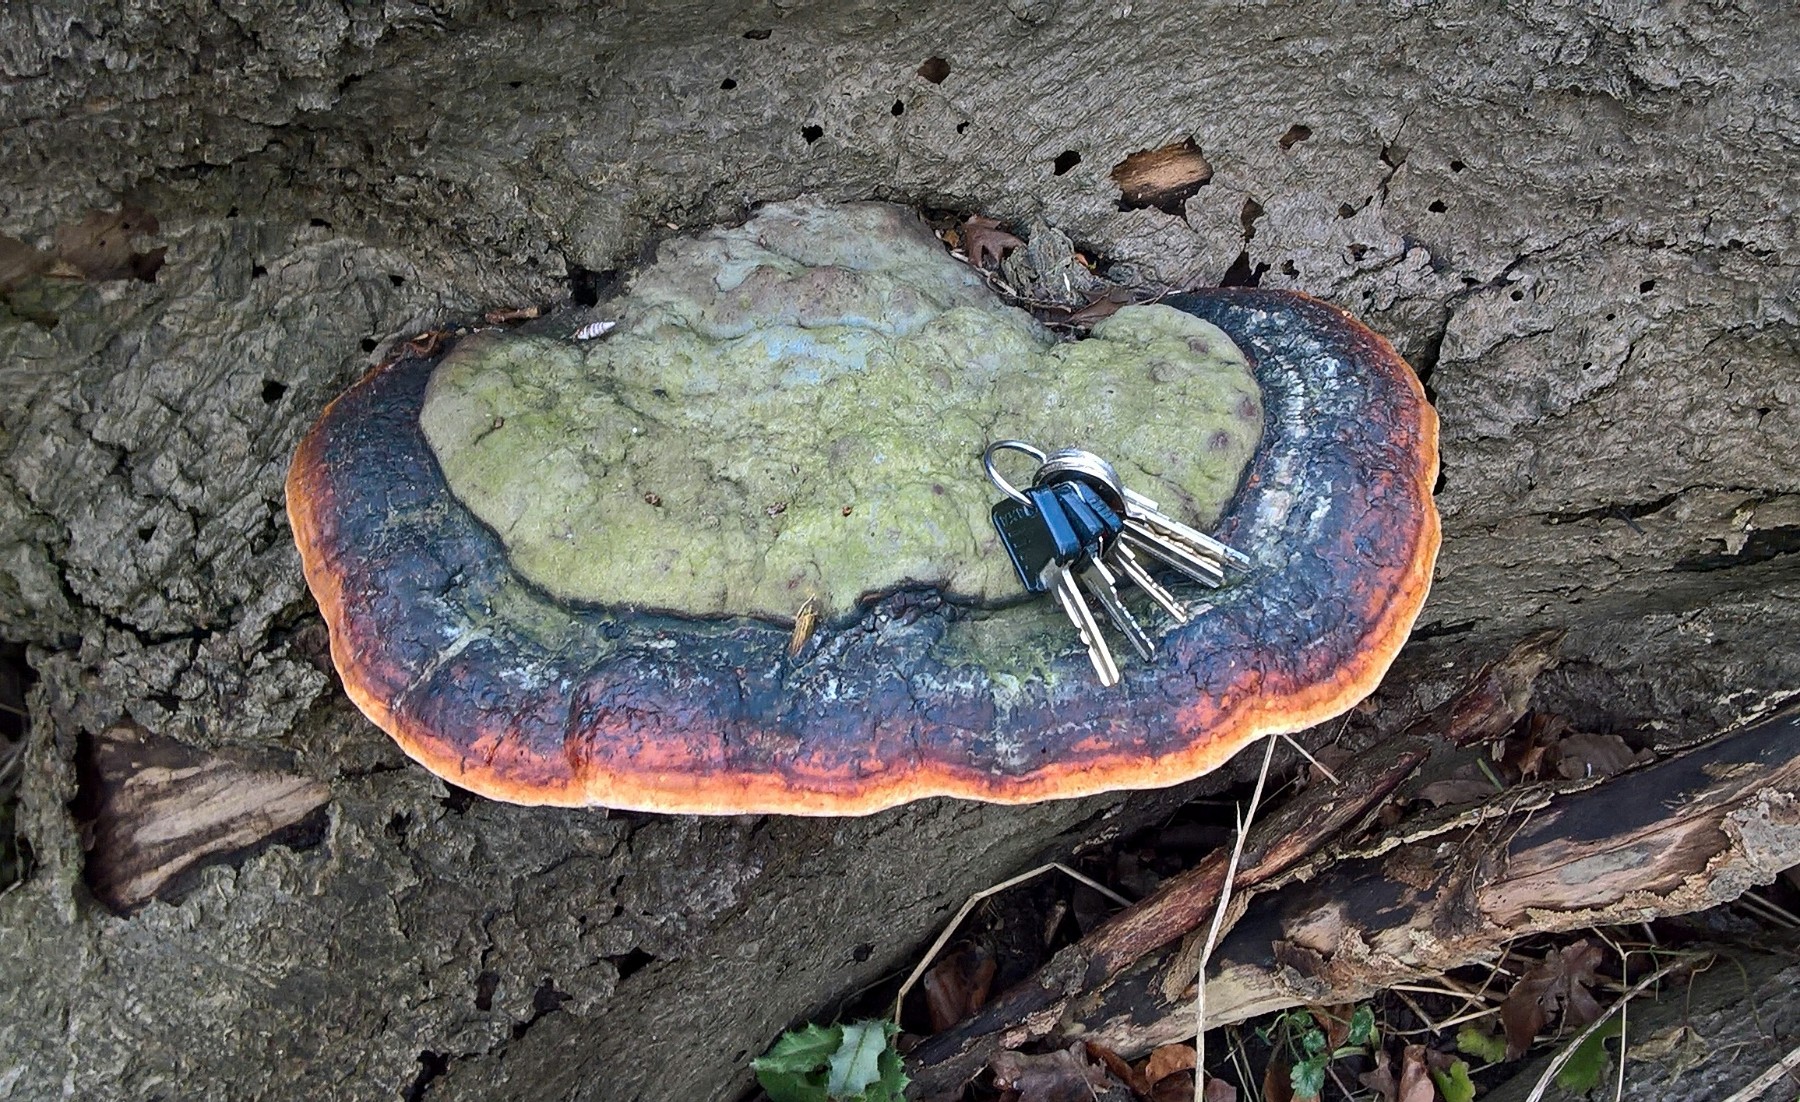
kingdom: Fungi
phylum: Basidiomycota
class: Agaricomycetes
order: Polyporales
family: Fomitopsidaceae
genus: Fomitopsis
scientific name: Fomitopsis pinicola
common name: randbæltet hovporesvamp
